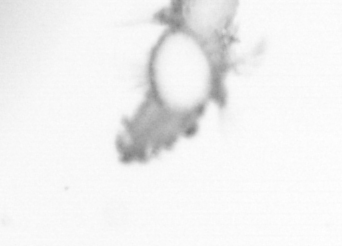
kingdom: Animalia
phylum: Annelida
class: Polychaeta
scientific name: Polychaeta
